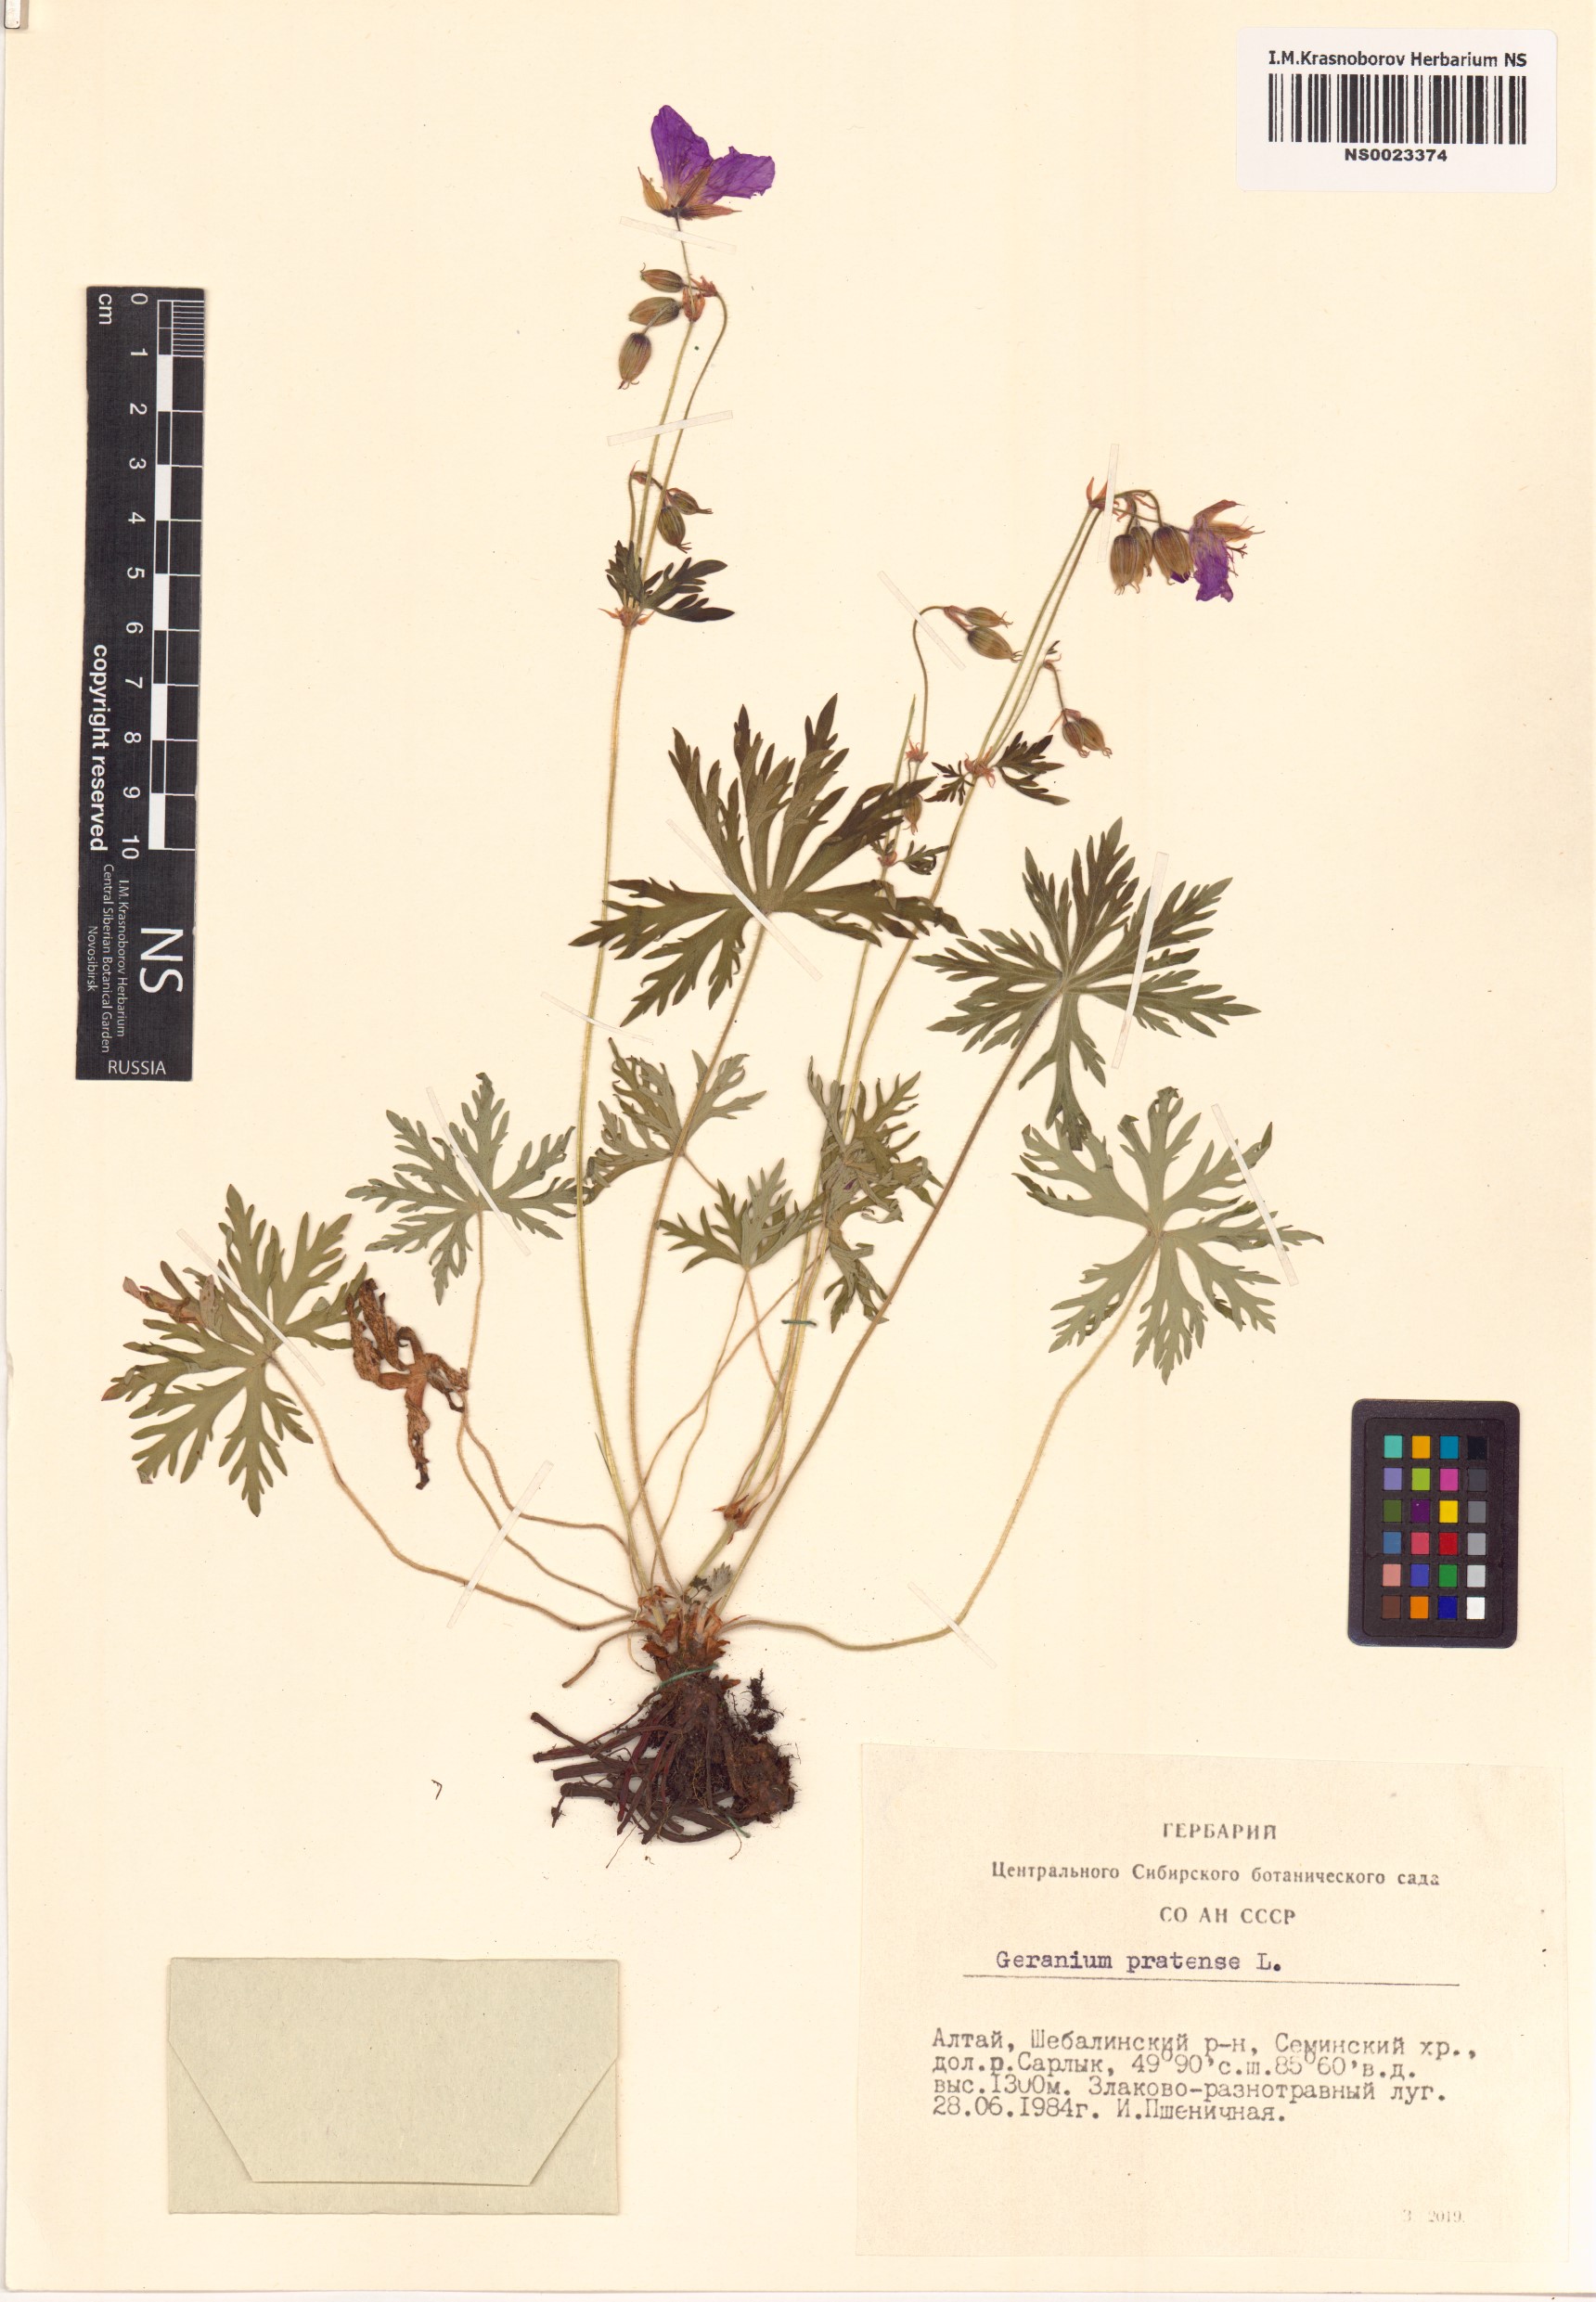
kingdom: Plantae
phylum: Tracheophyta
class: Magnoliopsida
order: Geraniales
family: Geraniaceae
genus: Geranium
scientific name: Geranium pratense
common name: Meadow crane's-bill
